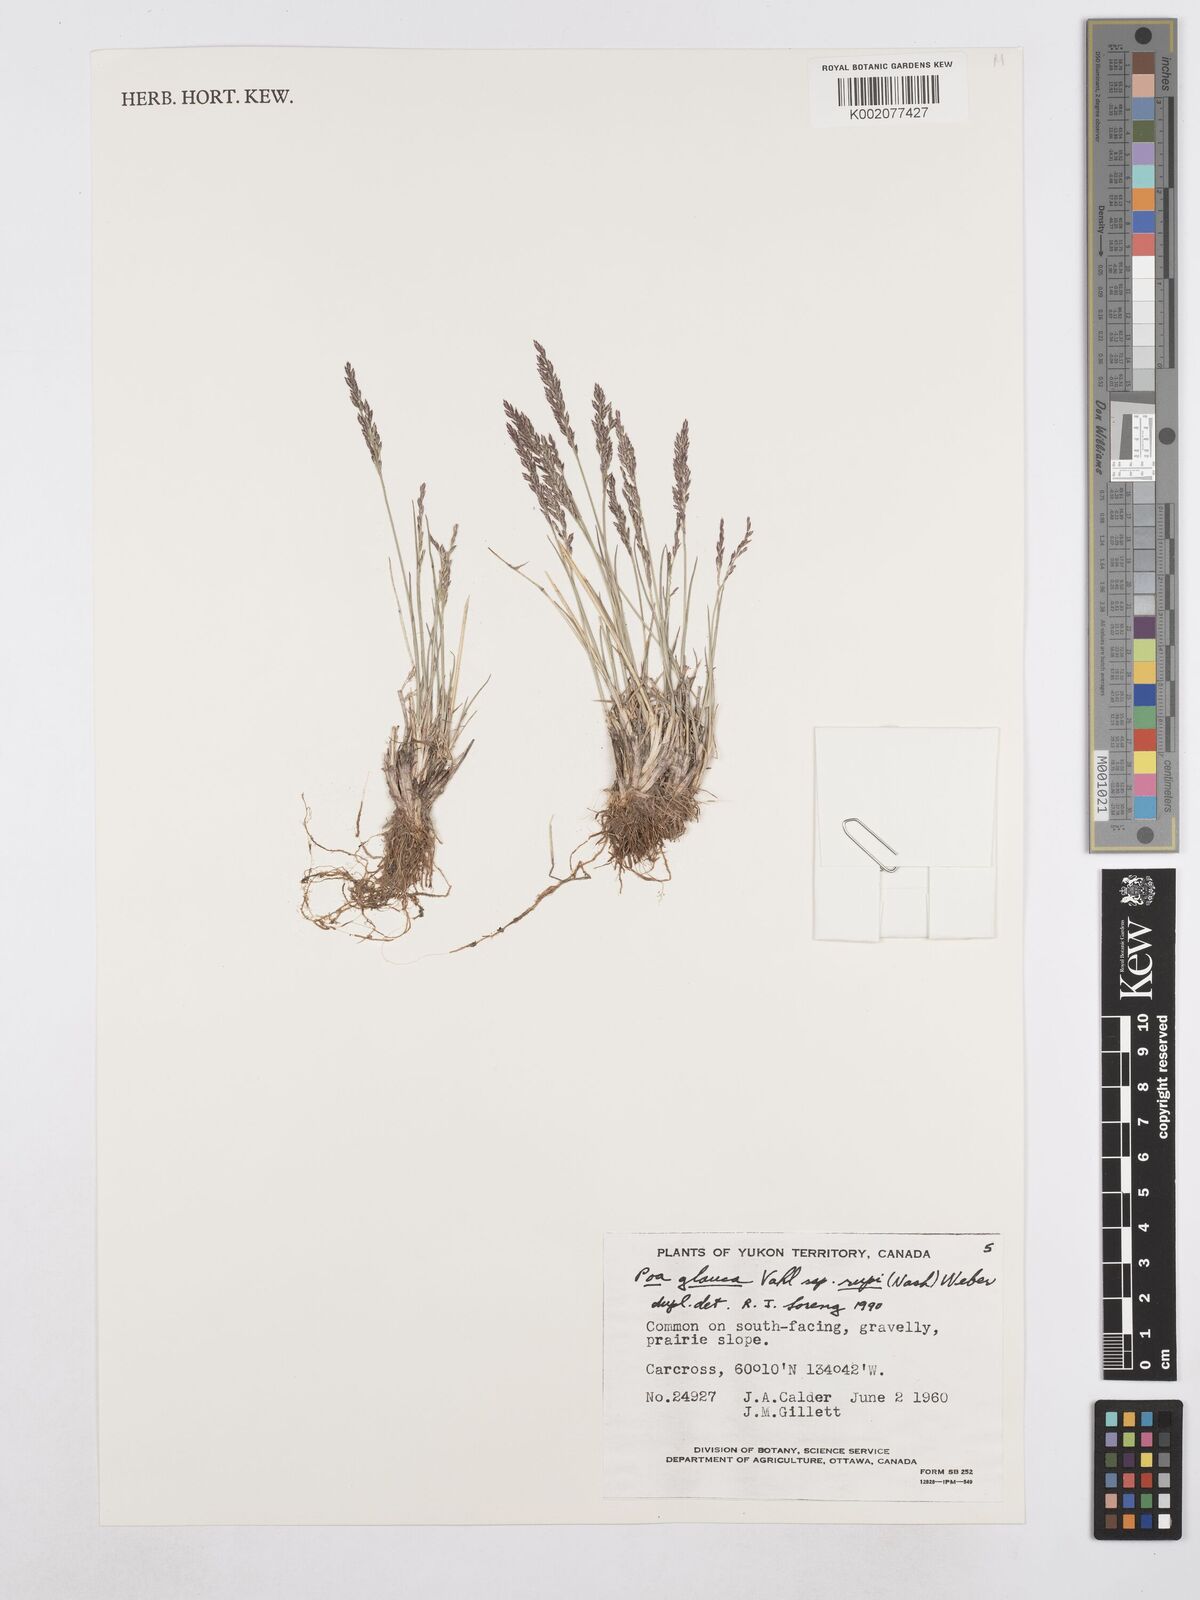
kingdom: Plantae
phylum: Tracheophyta
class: Liliopsida
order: Poales
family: Poaceae
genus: Poa
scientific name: Poa glauca
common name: Glaucous bluegrass
